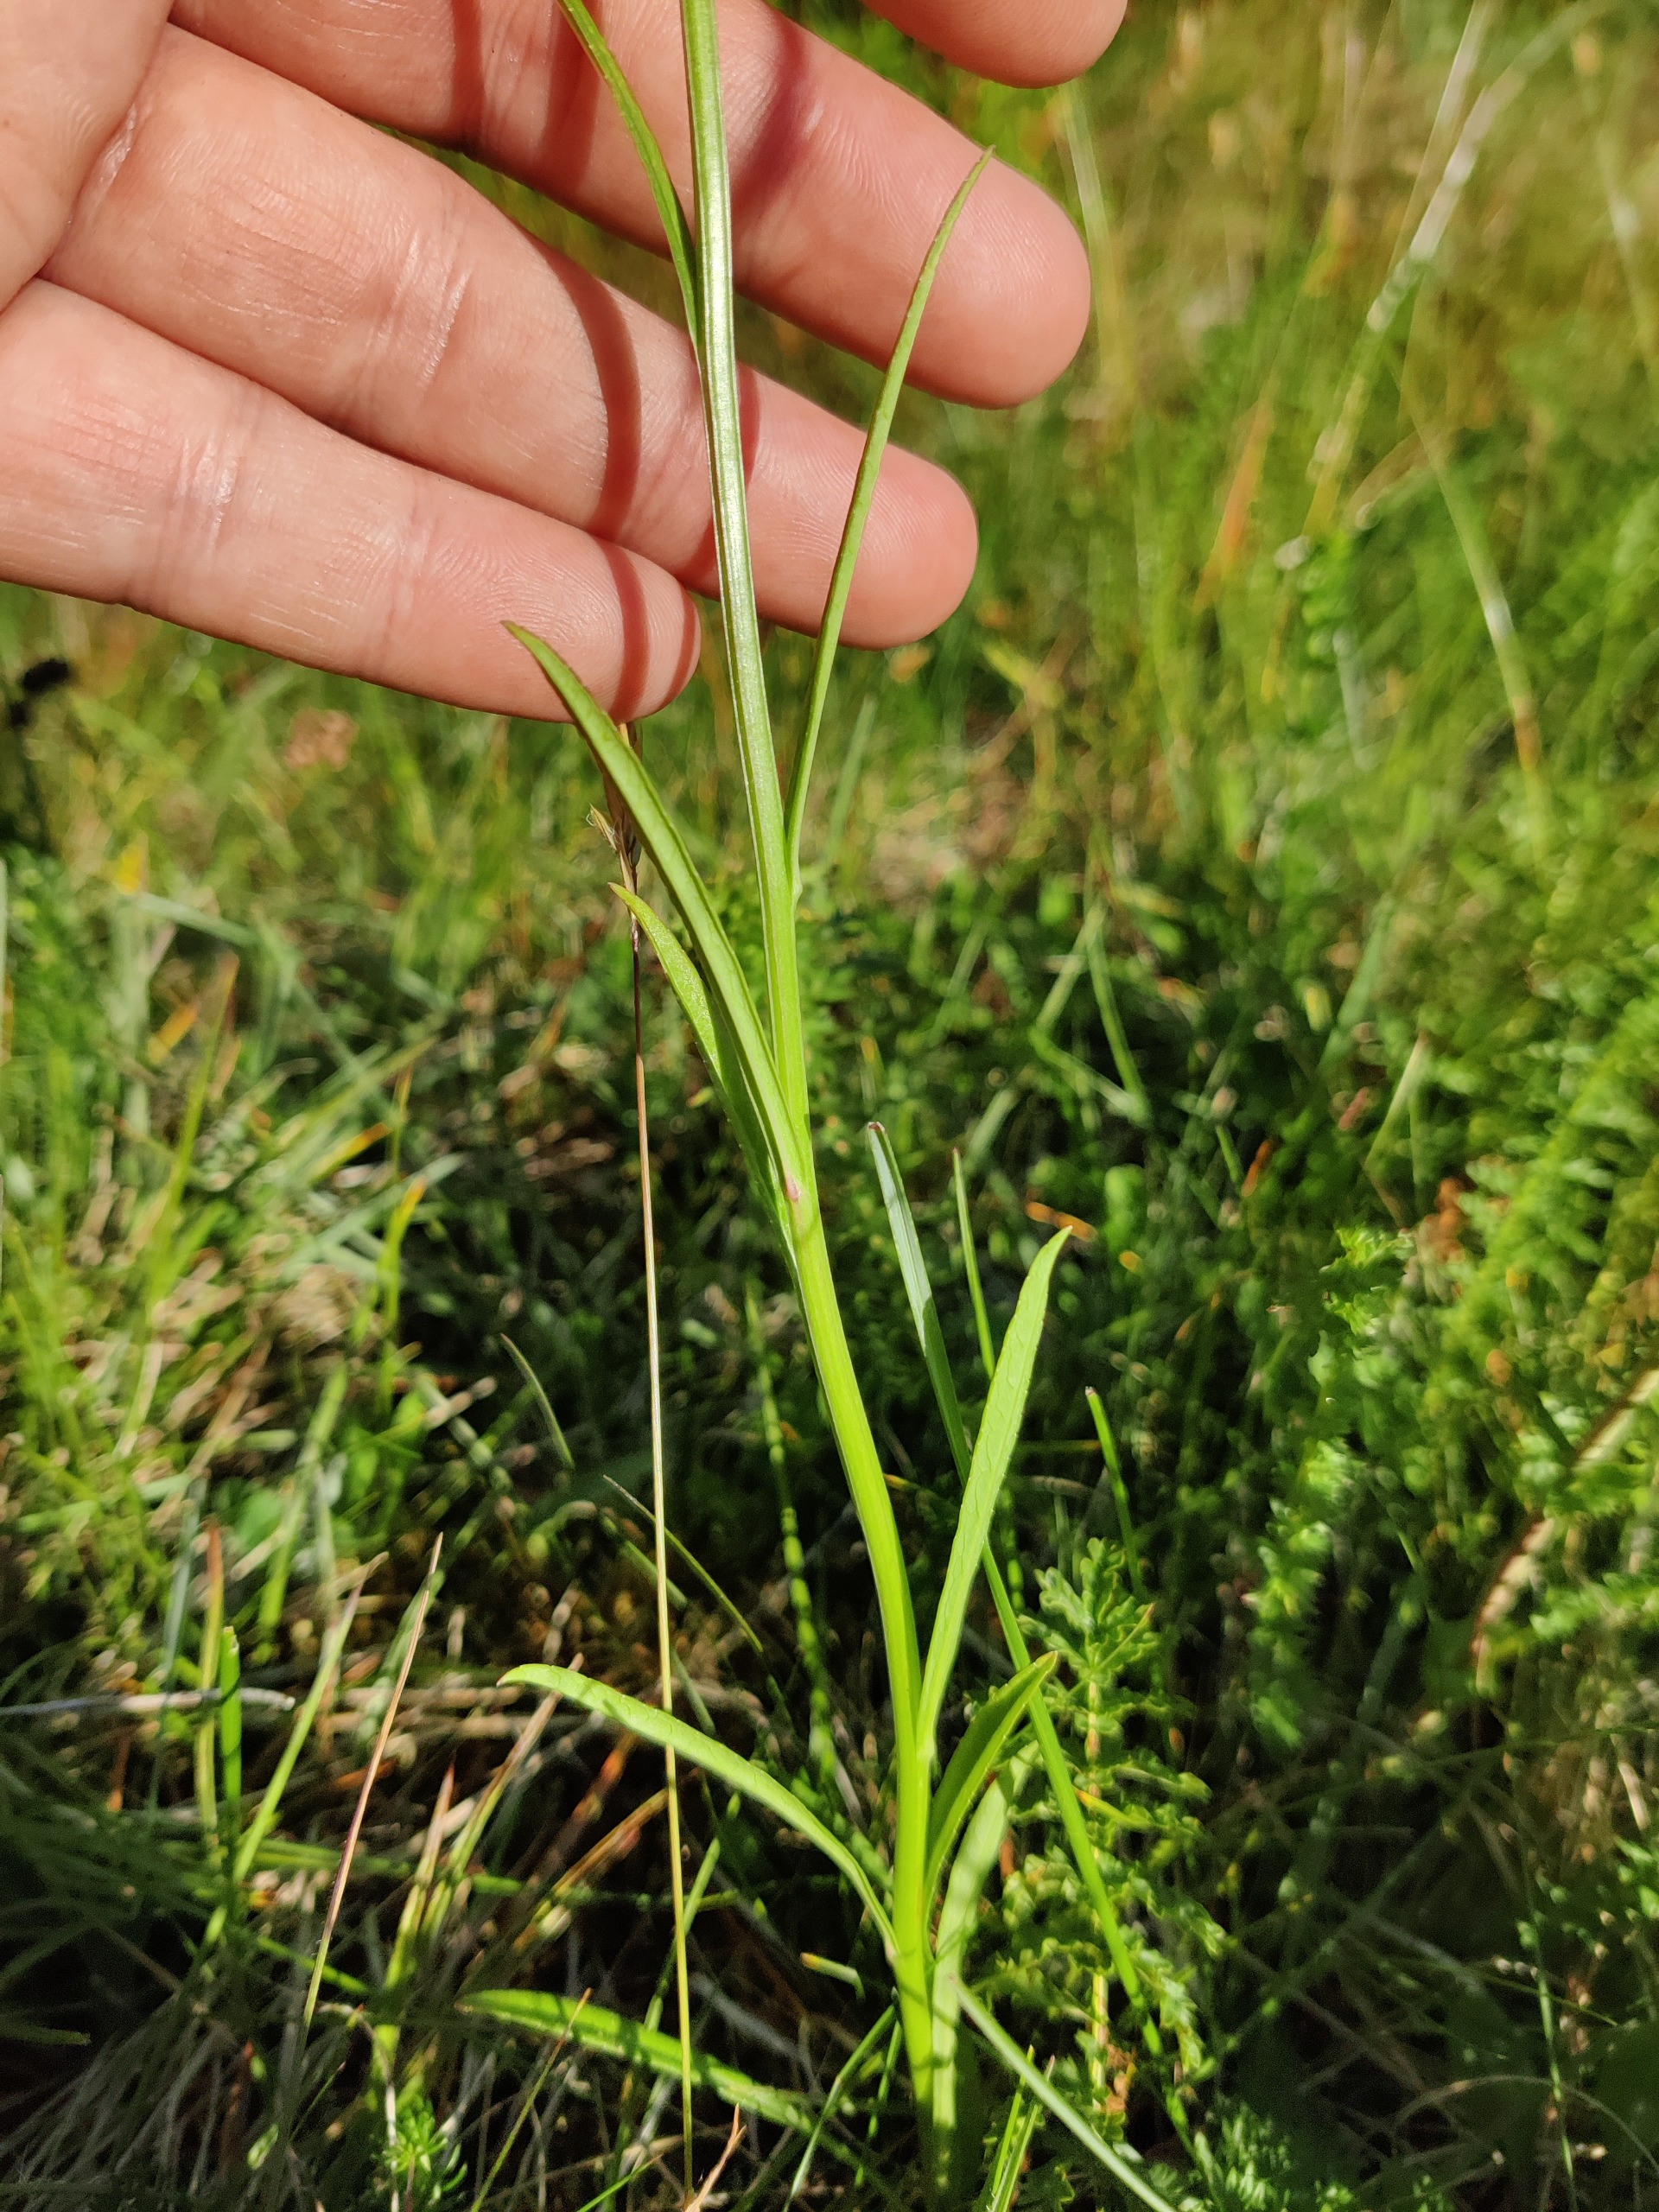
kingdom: Plantae
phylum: Tracheophyta
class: Magnoliopsida
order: Asterales
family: Campanulaceae
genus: Campanula
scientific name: Campanula persicifolia
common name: Smalbladet klokke
